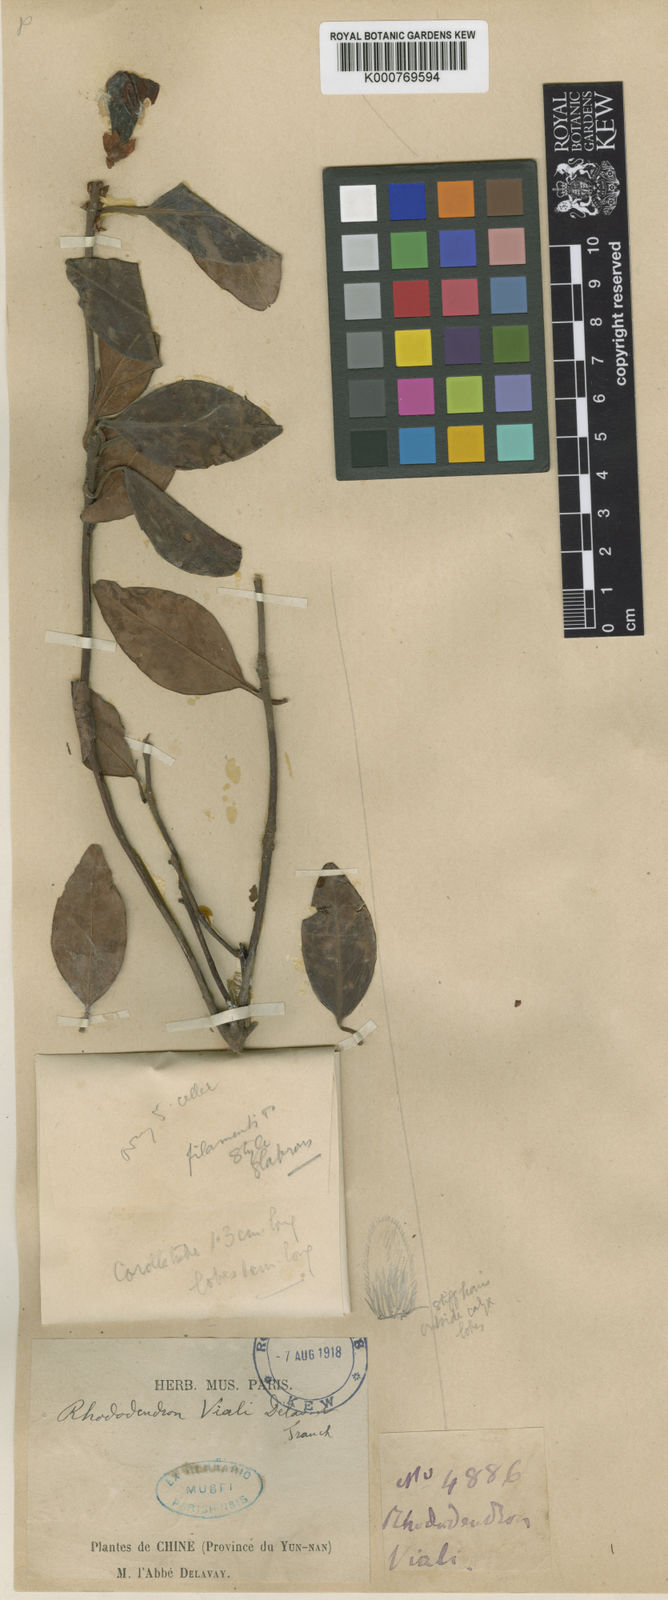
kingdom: Plantae
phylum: Tracheophyta
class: Magnoliopsida
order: Ericales
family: Ericaceae
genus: Rhododendron
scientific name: Rhododendron vialii
